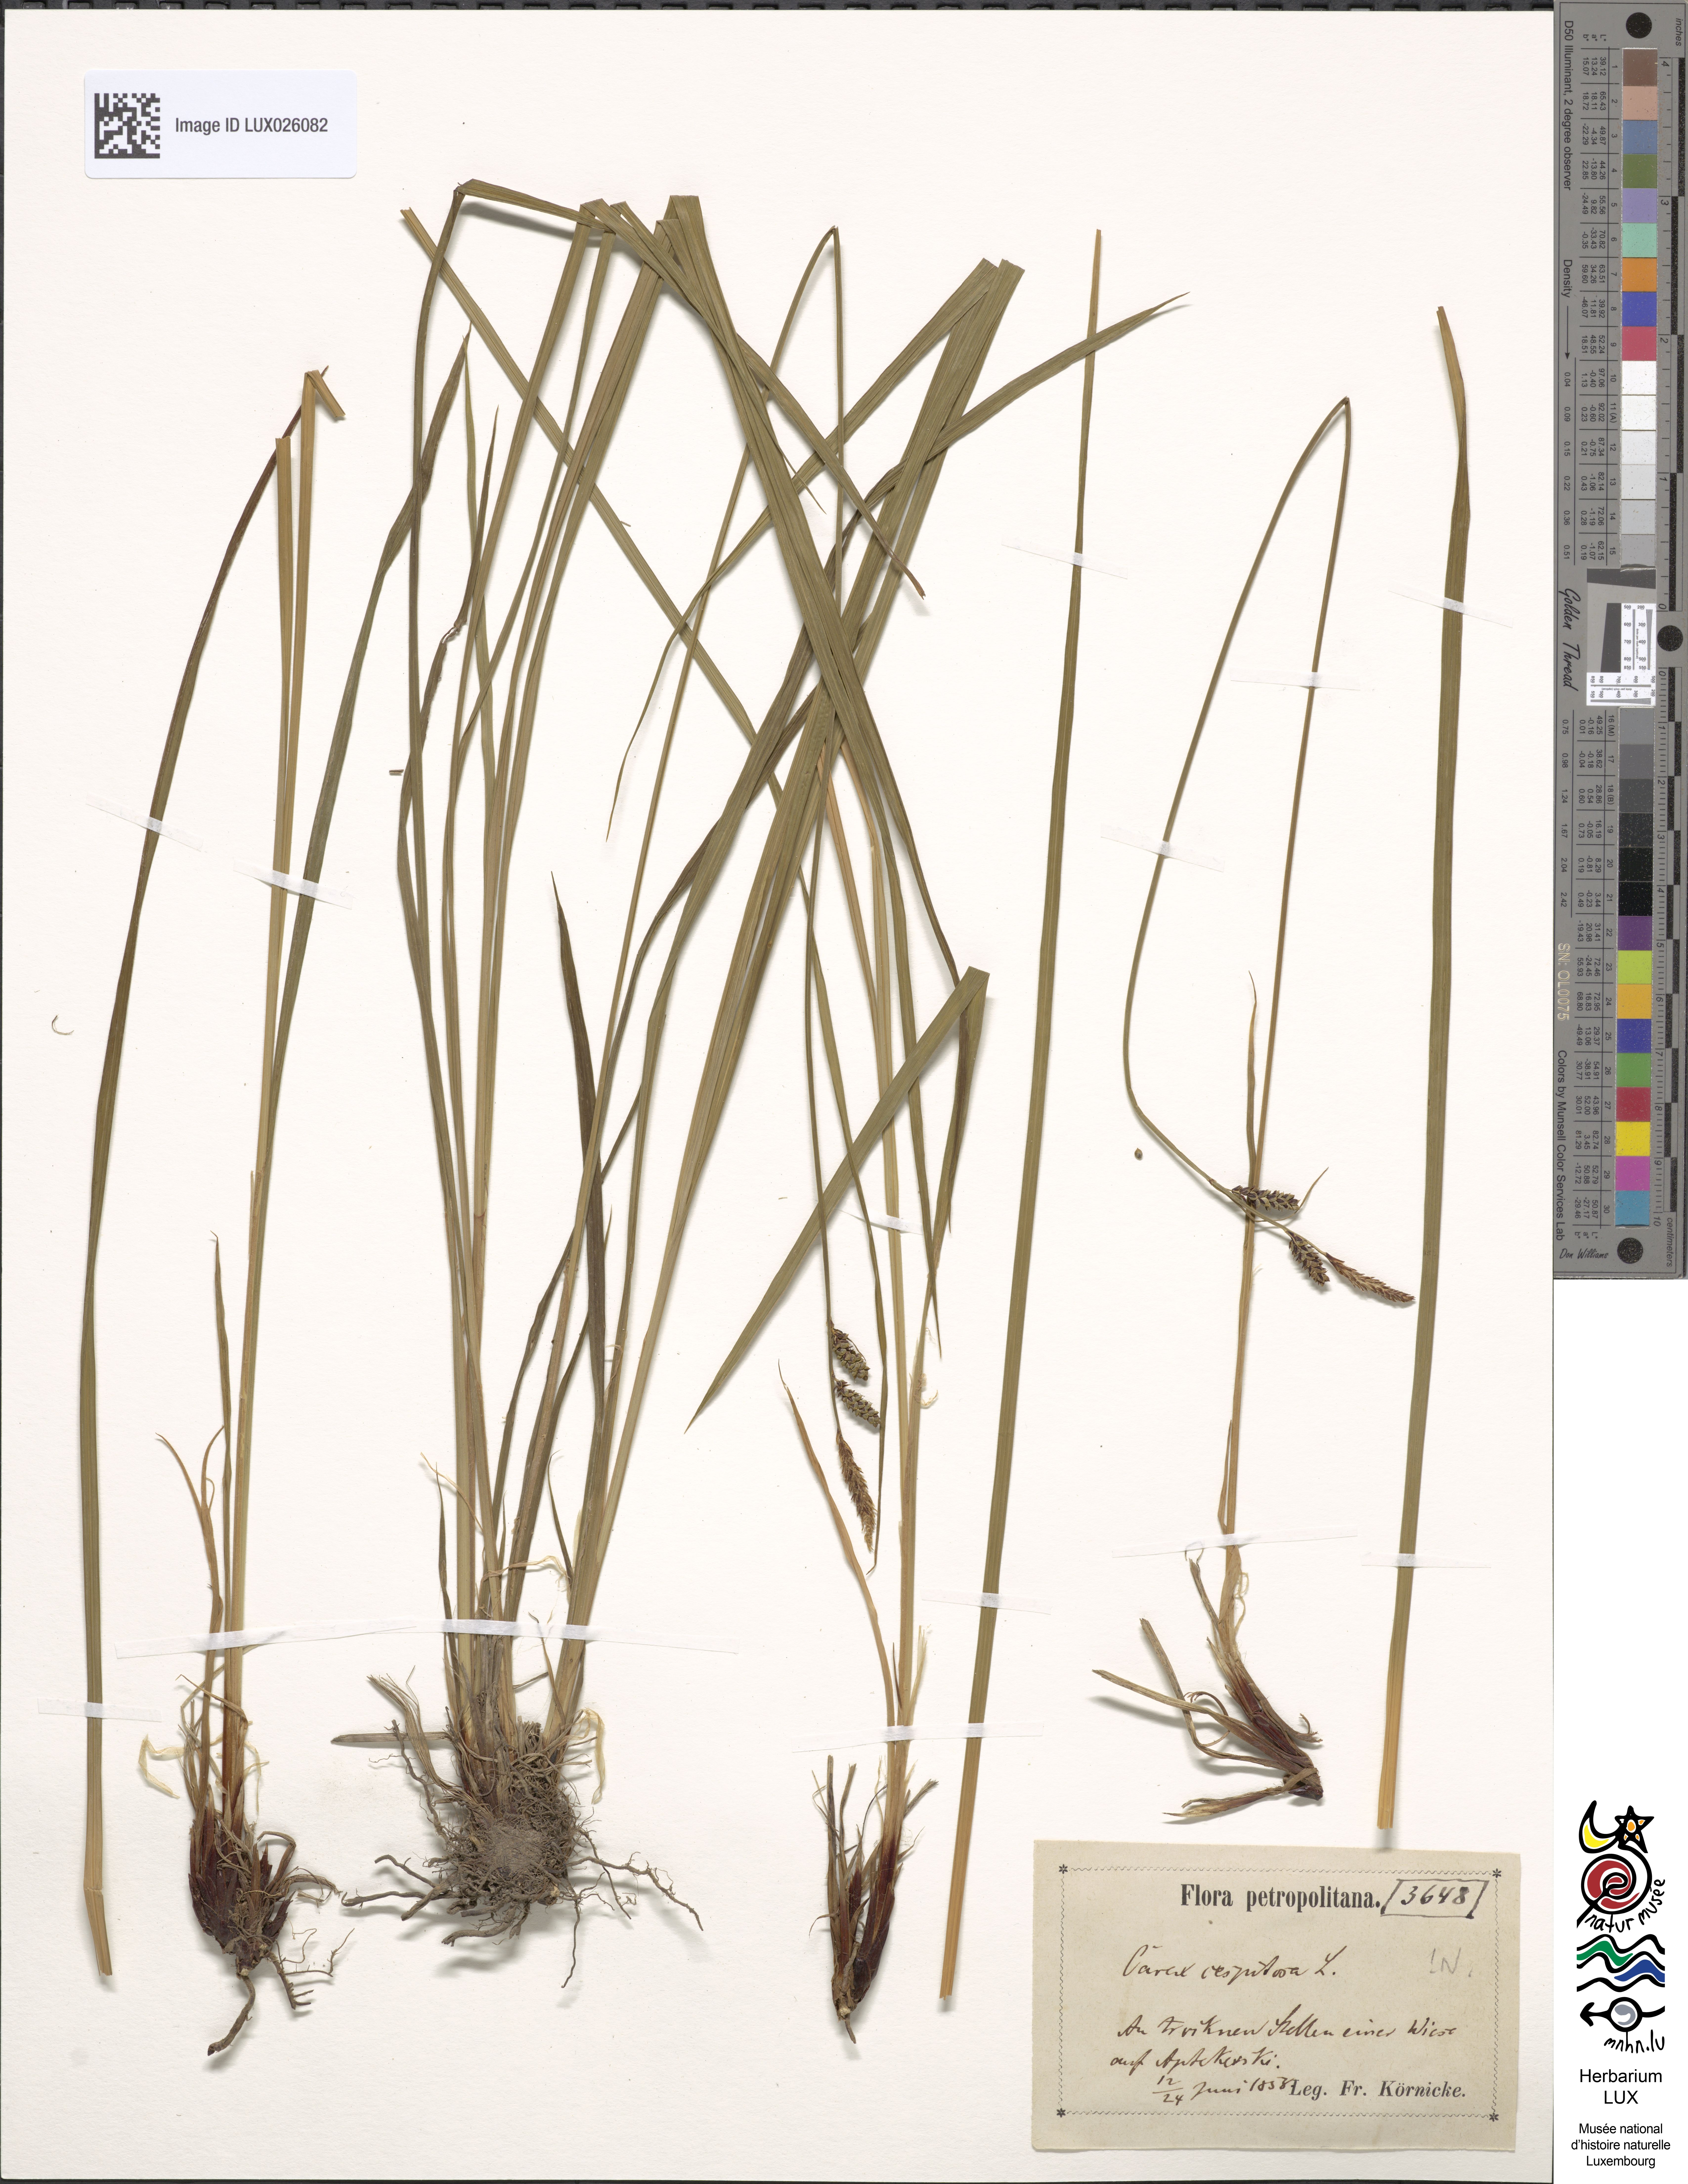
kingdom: Plantae
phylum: Tracheophyta
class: Liliopsida
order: Poales
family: Cyperaceae
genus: Carex
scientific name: Carex cespitosa
